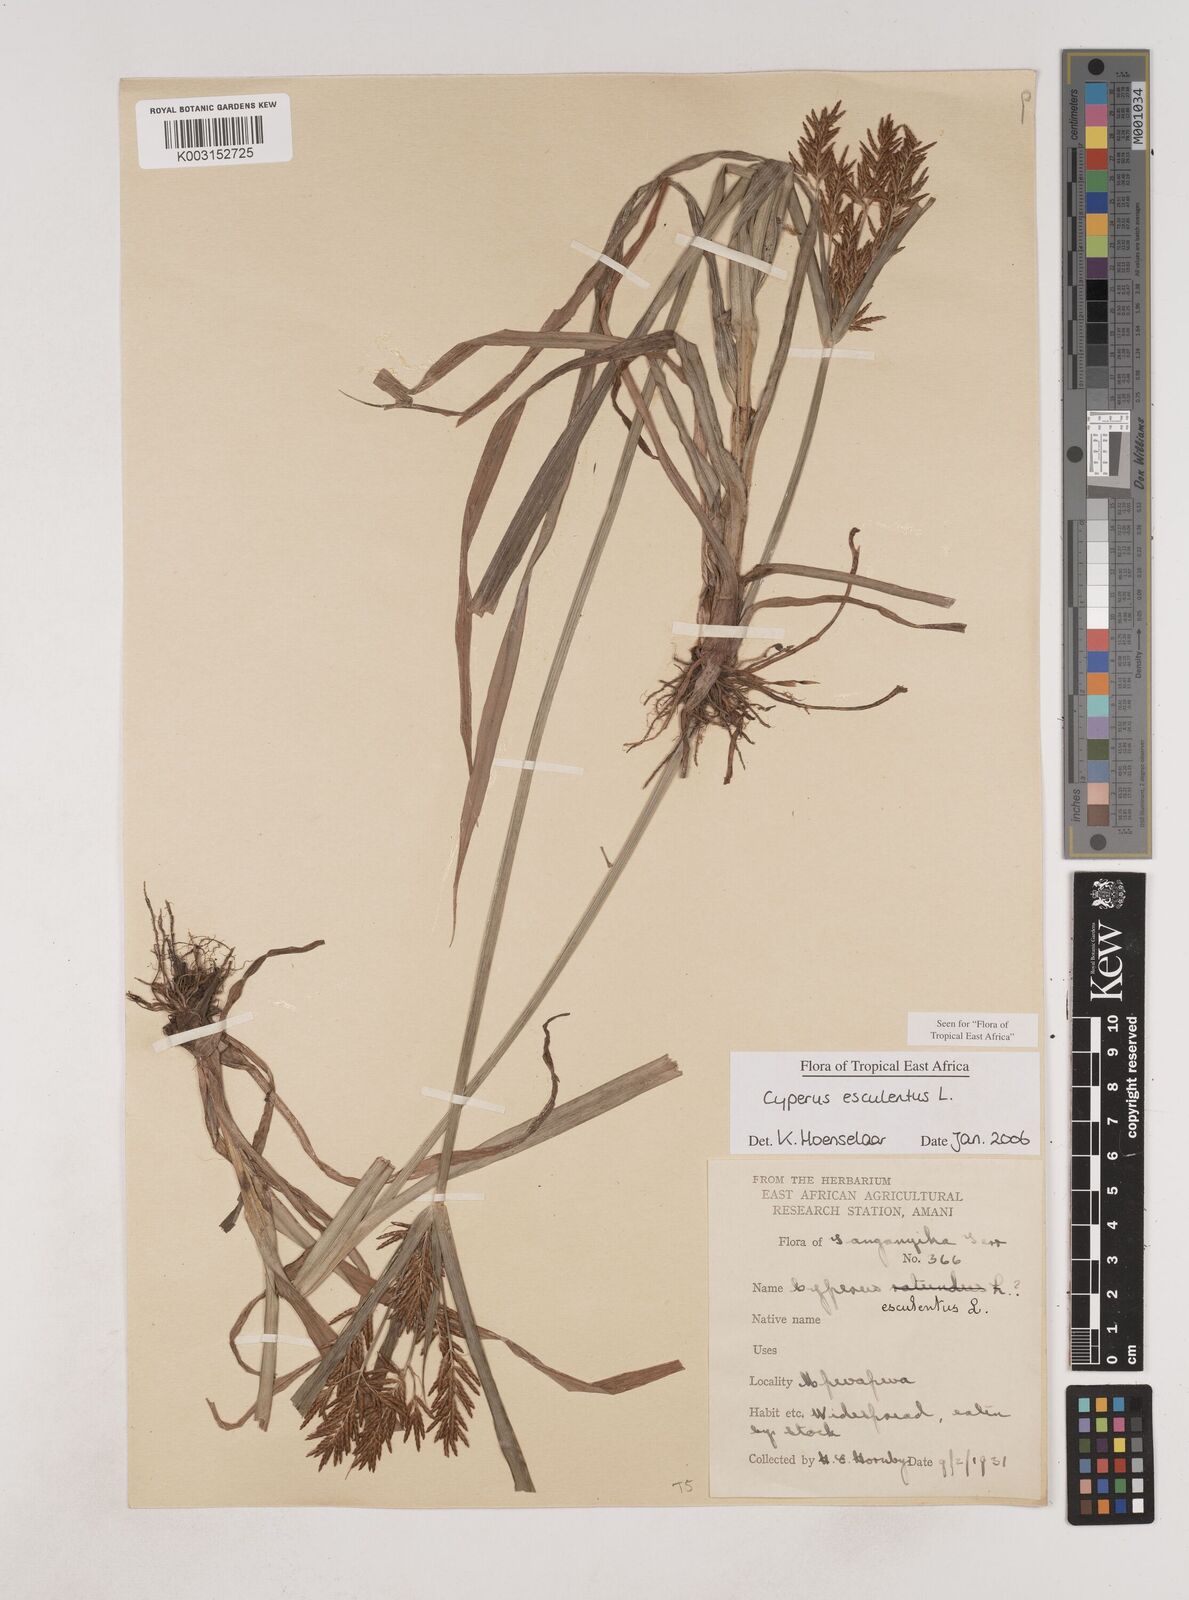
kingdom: Plantae
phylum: Tracheophyta
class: Liliopsida
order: Poales
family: Cyperaceae
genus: Cyperus
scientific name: Cyperus esculentus
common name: Yellow nutsedge
